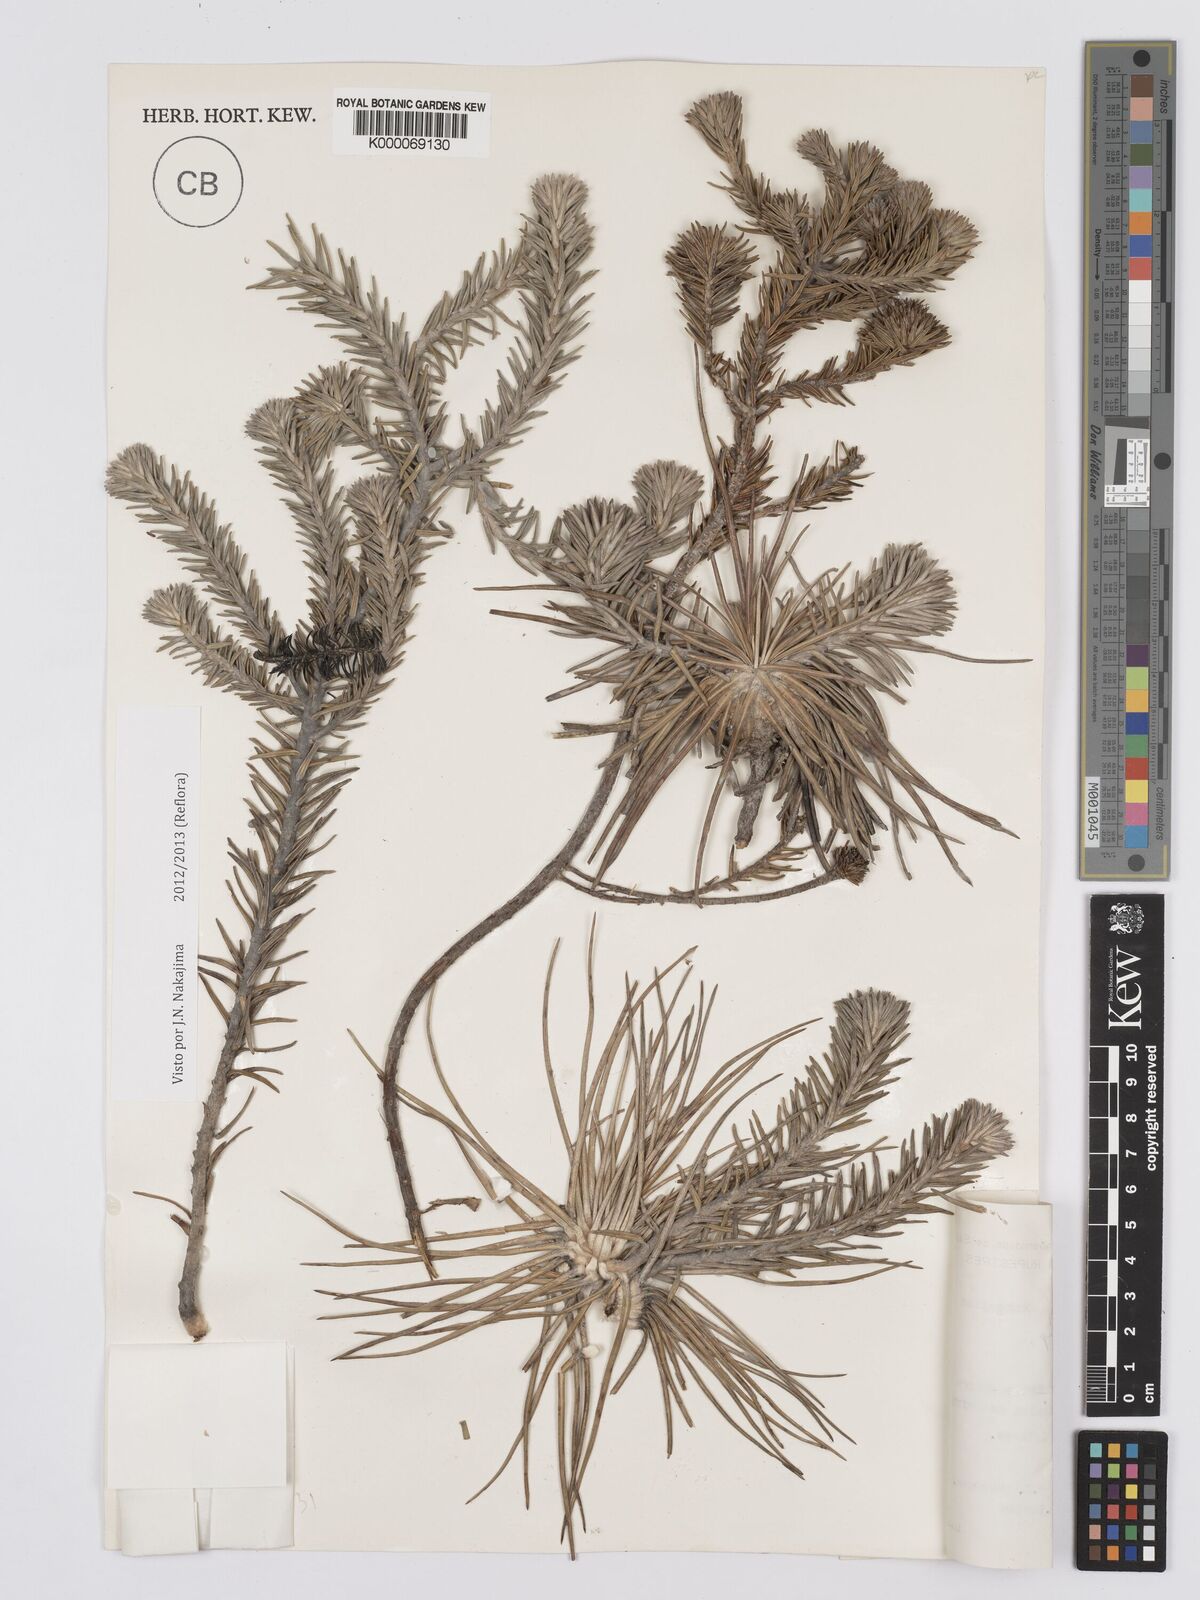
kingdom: Plantae
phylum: Tracheophyta
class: Magnoliopsida
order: Asterales
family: Asteraceae
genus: Lychnophora
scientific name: Lychnophora uniflora
